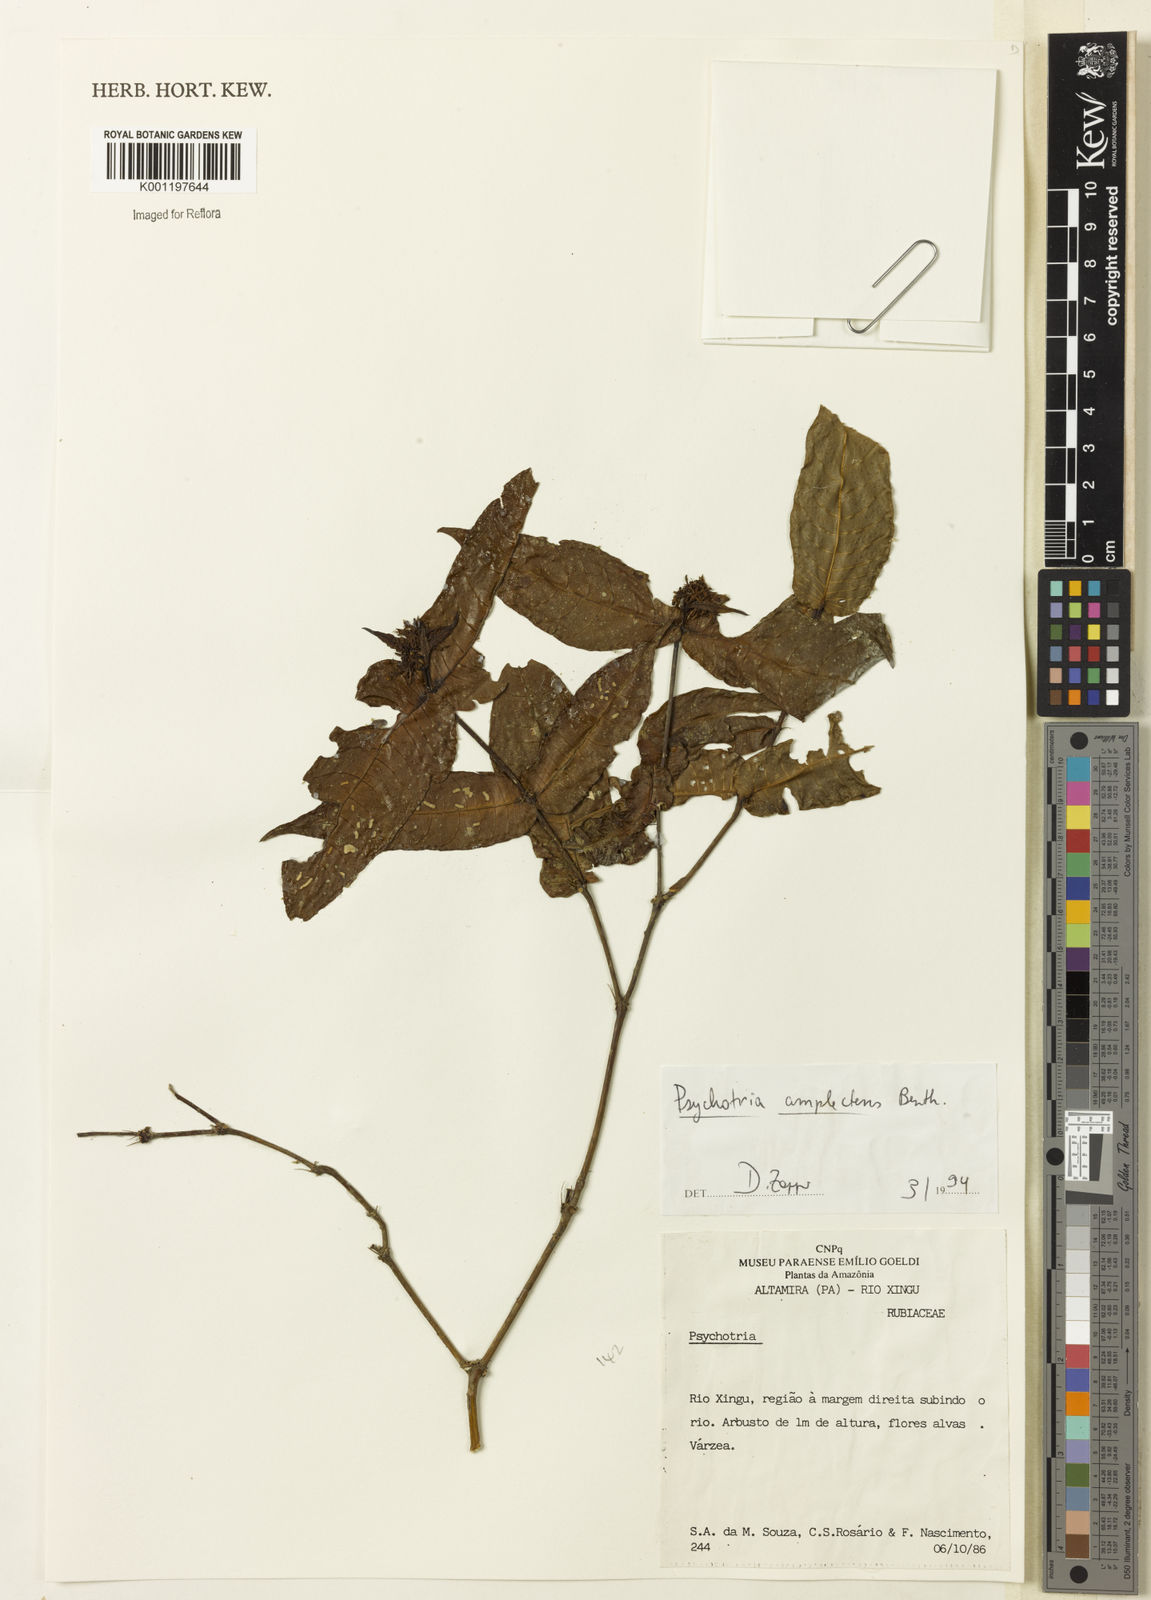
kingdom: Plantae
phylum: Tracheophyta
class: Magnoliopsida
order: Gentianales
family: Rubiaceae
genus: Psychotria
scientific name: Psychotria
